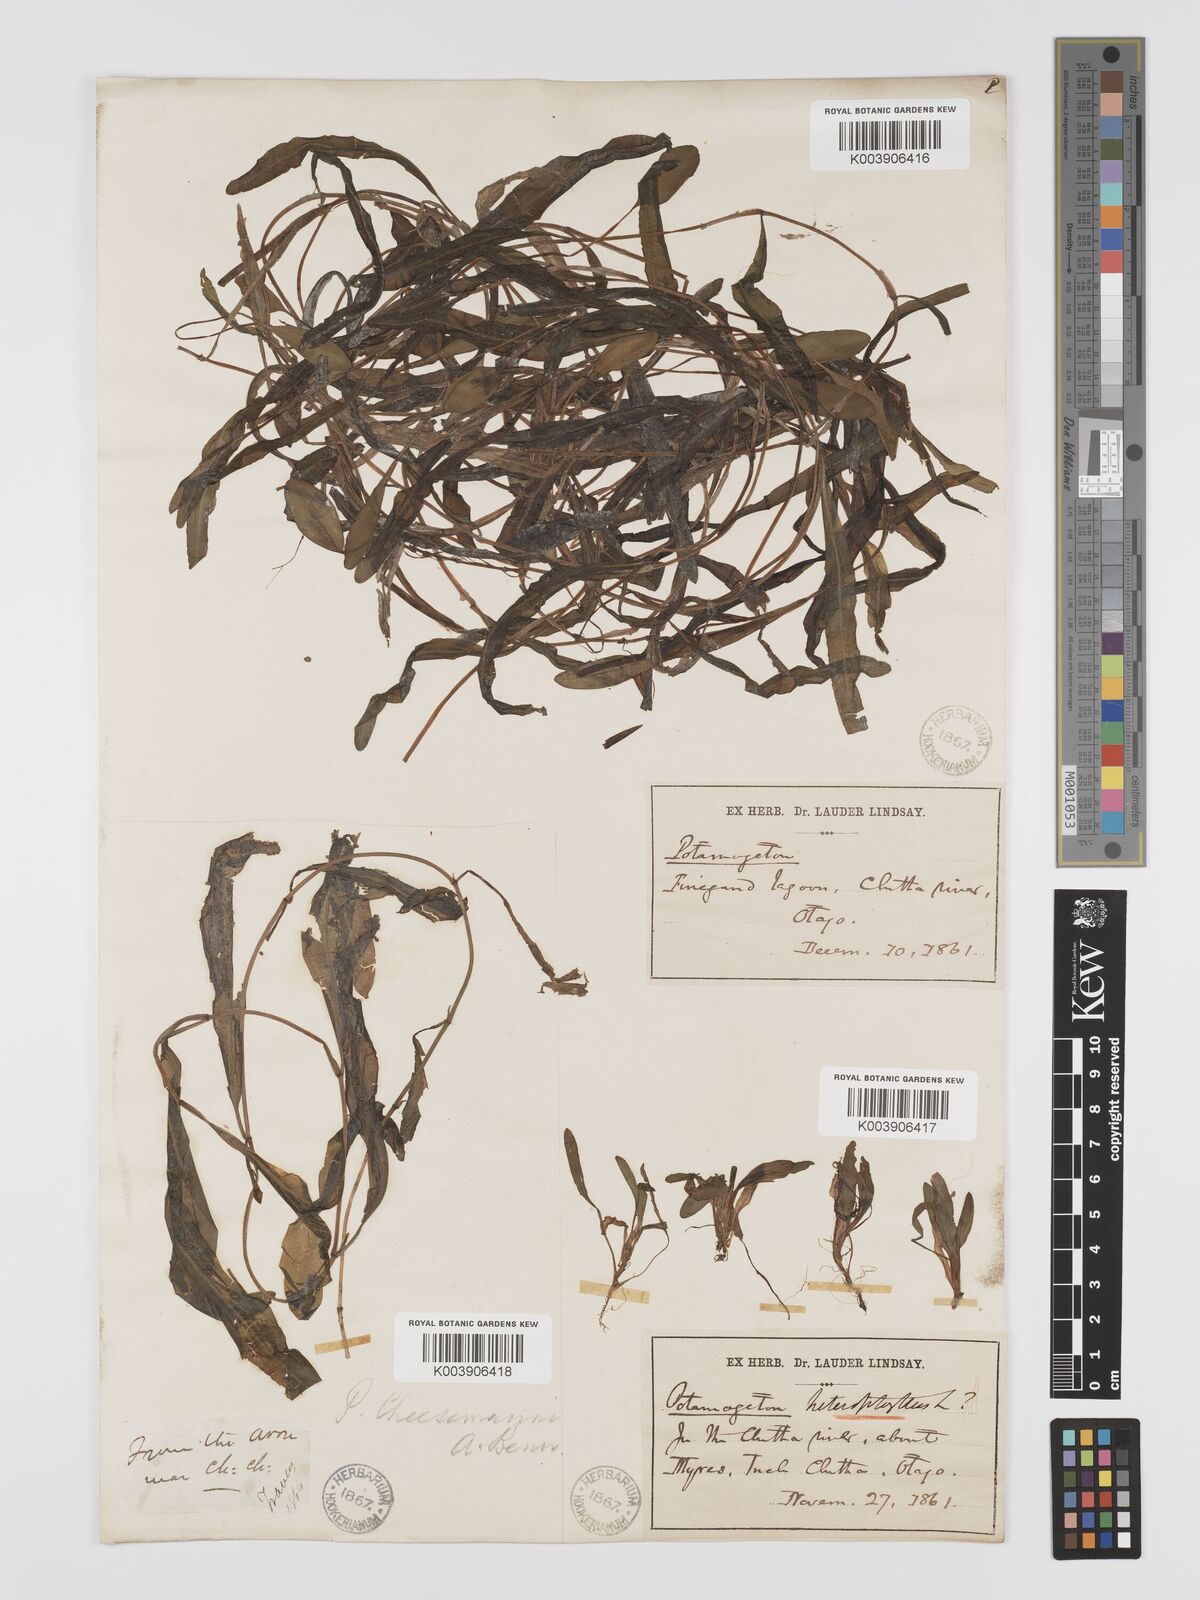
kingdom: Plantae
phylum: Tracheophyta
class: Liliopsida
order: Alismatales
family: Potamogetonaceae
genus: Potamogeton
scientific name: Potamogeton cheesemanii
